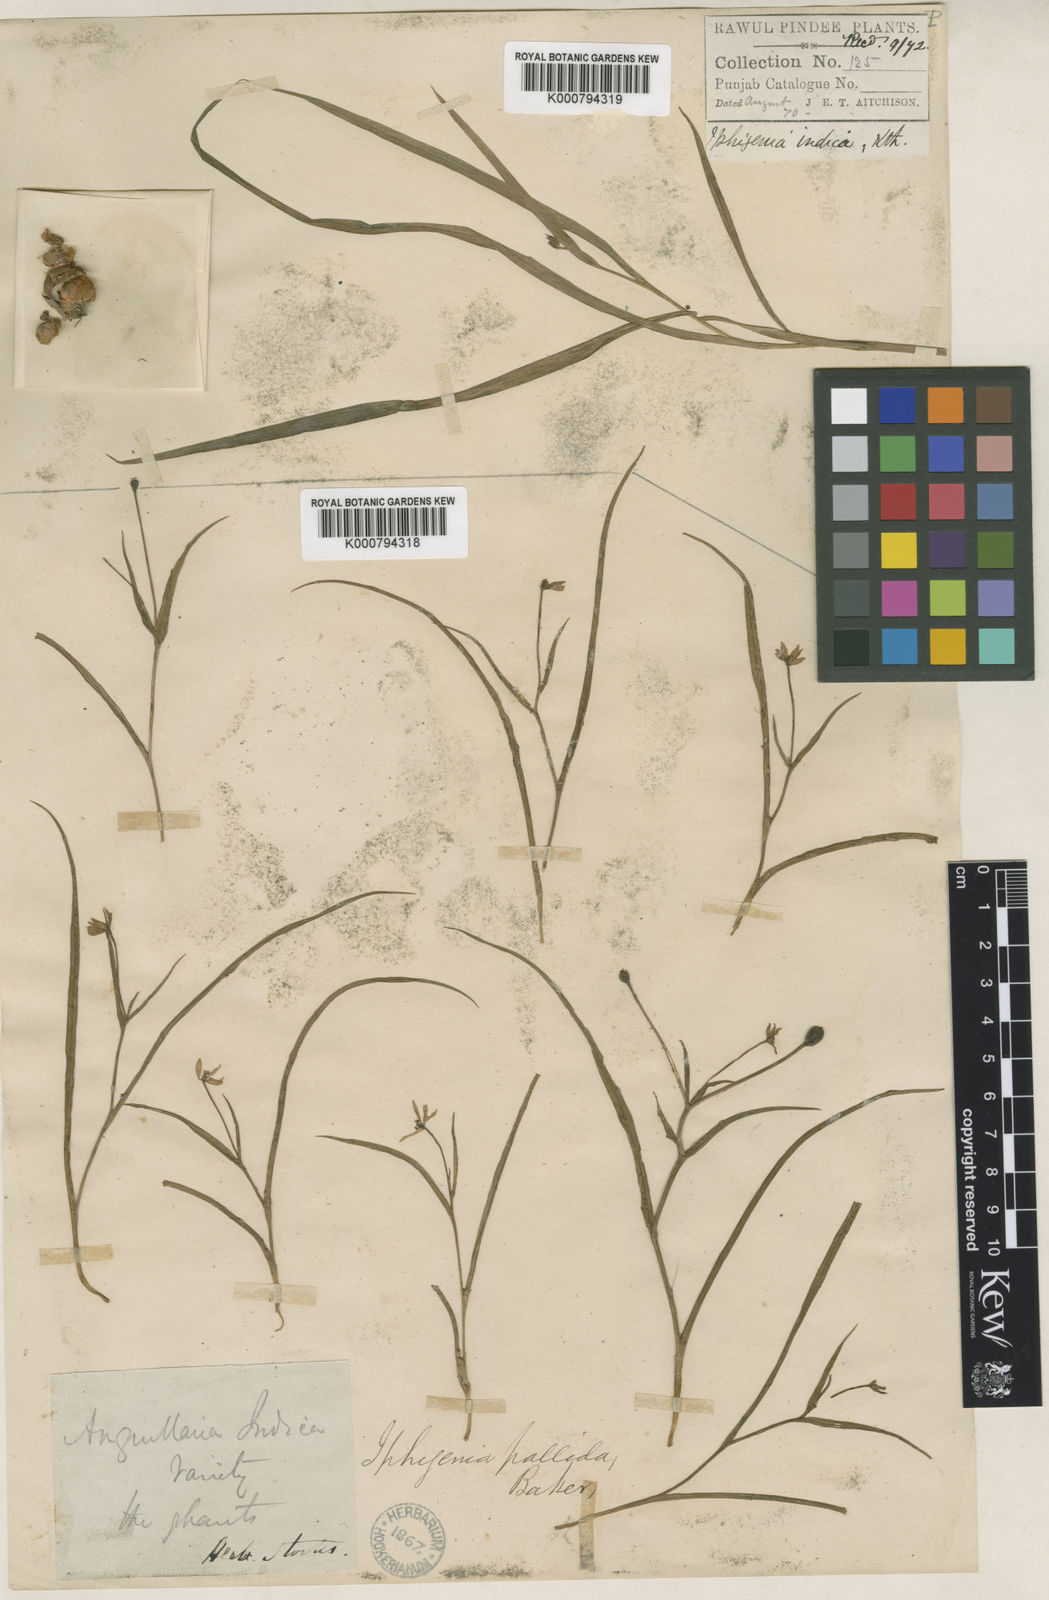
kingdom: Plantae
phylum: Tracheophyta
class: Liliopsida
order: Liliales
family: Colchicaceae
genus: Iphigenia
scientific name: Iphigenia pallida
